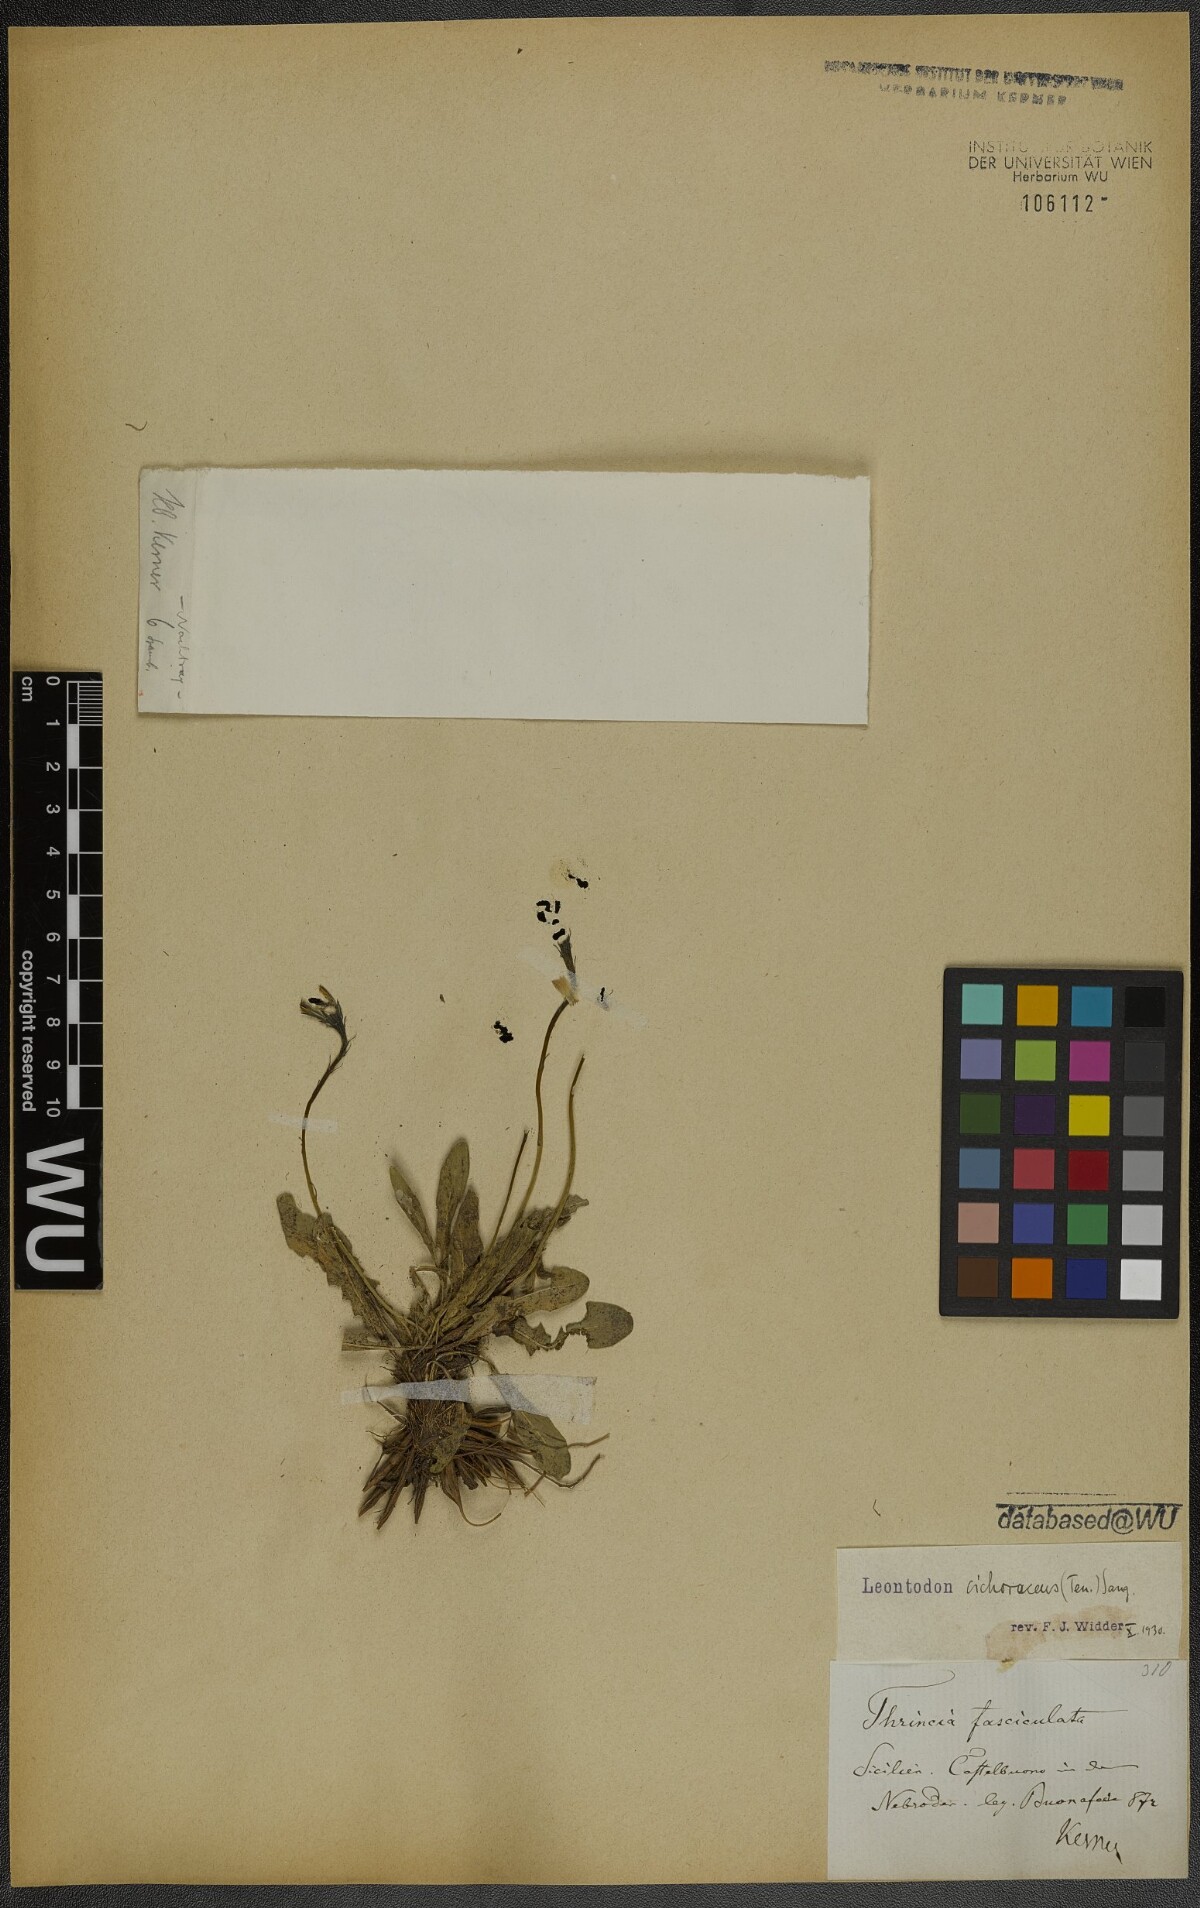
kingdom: Plantae
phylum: Tracheophyta
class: Magnoliopsida
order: Asterales
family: Asteraceae
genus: Scorzoneroides
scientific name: Scorzoneroides cichoriacea
